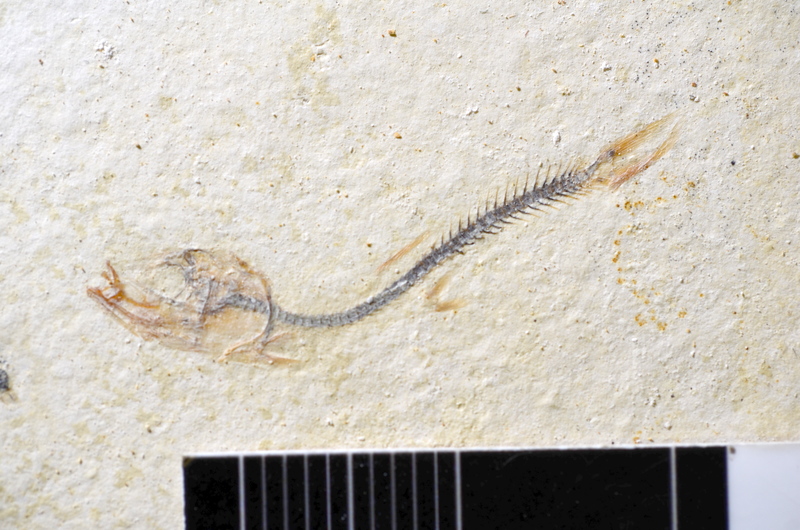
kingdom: Animalia
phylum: Chordata
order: Salmoniformes
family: Orthogonikleithridae
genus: Orthogonikleithrus
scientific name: Orthogonikleithrus hoelli
